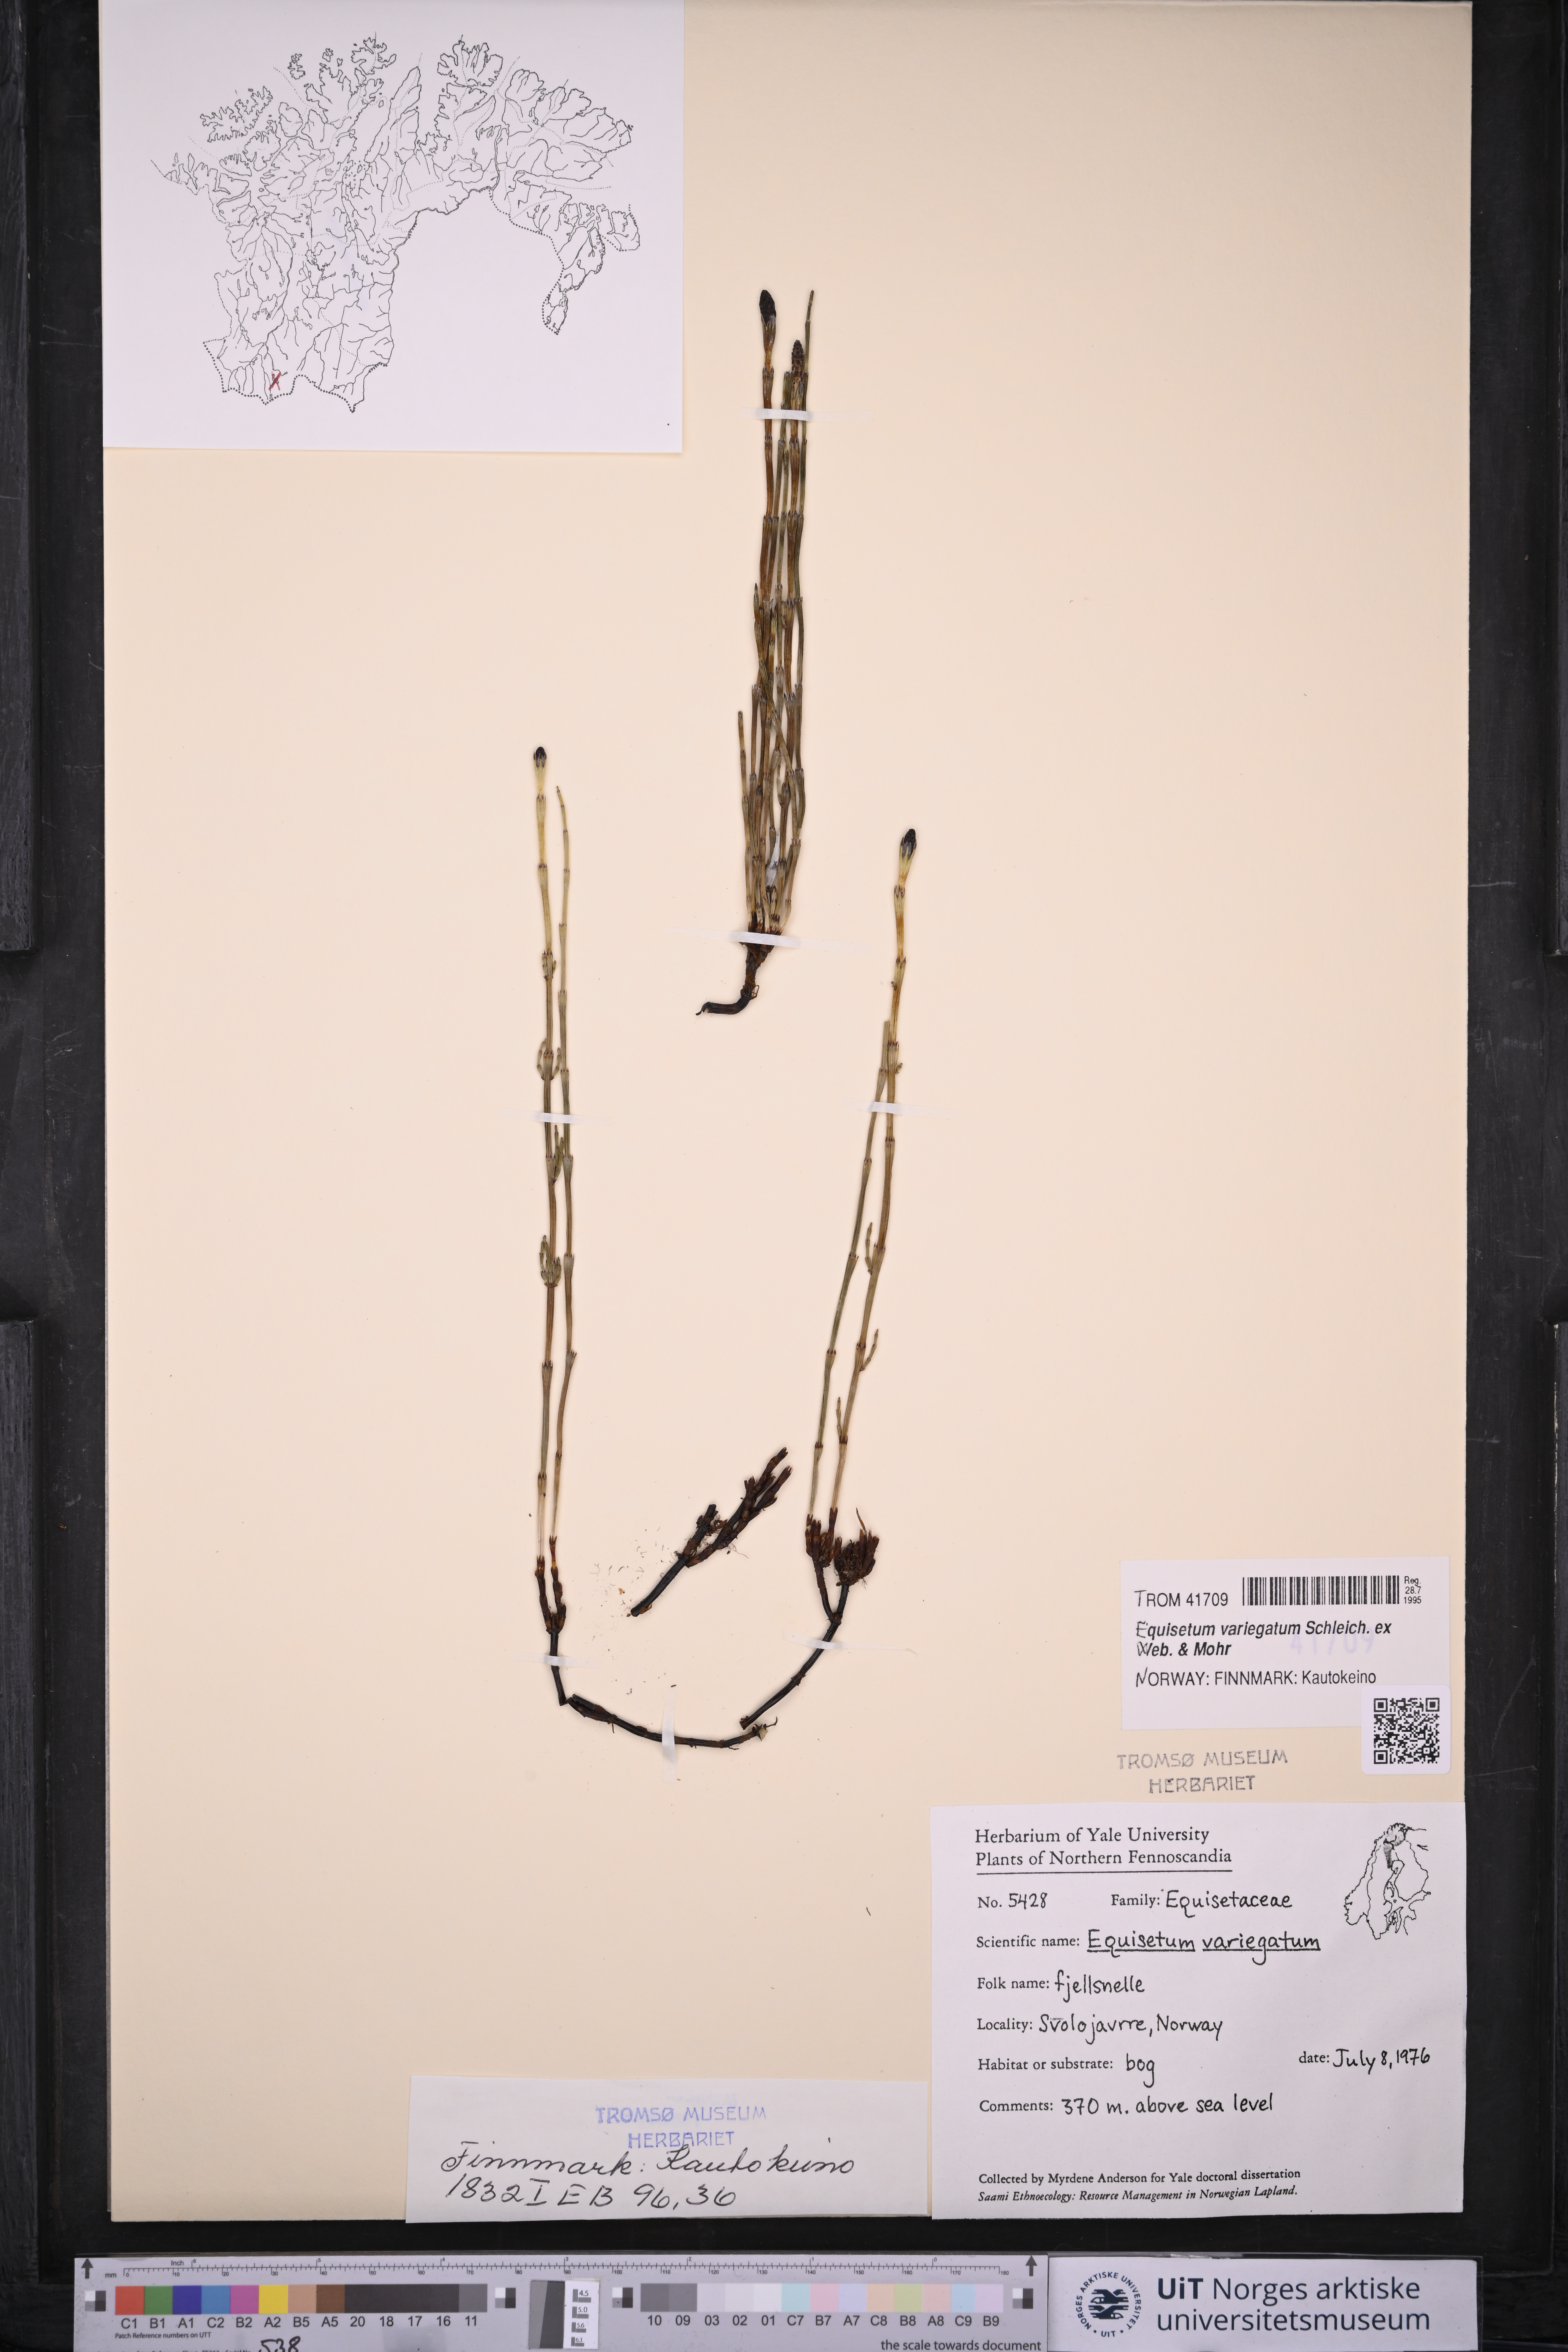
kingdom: Plantae
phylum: Tracheophyta
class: Polypodiopsida
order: Equisetales
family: Equisetaceae
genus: Equisetum
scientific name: Equisetum variegatum
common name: Variegated horsetail
